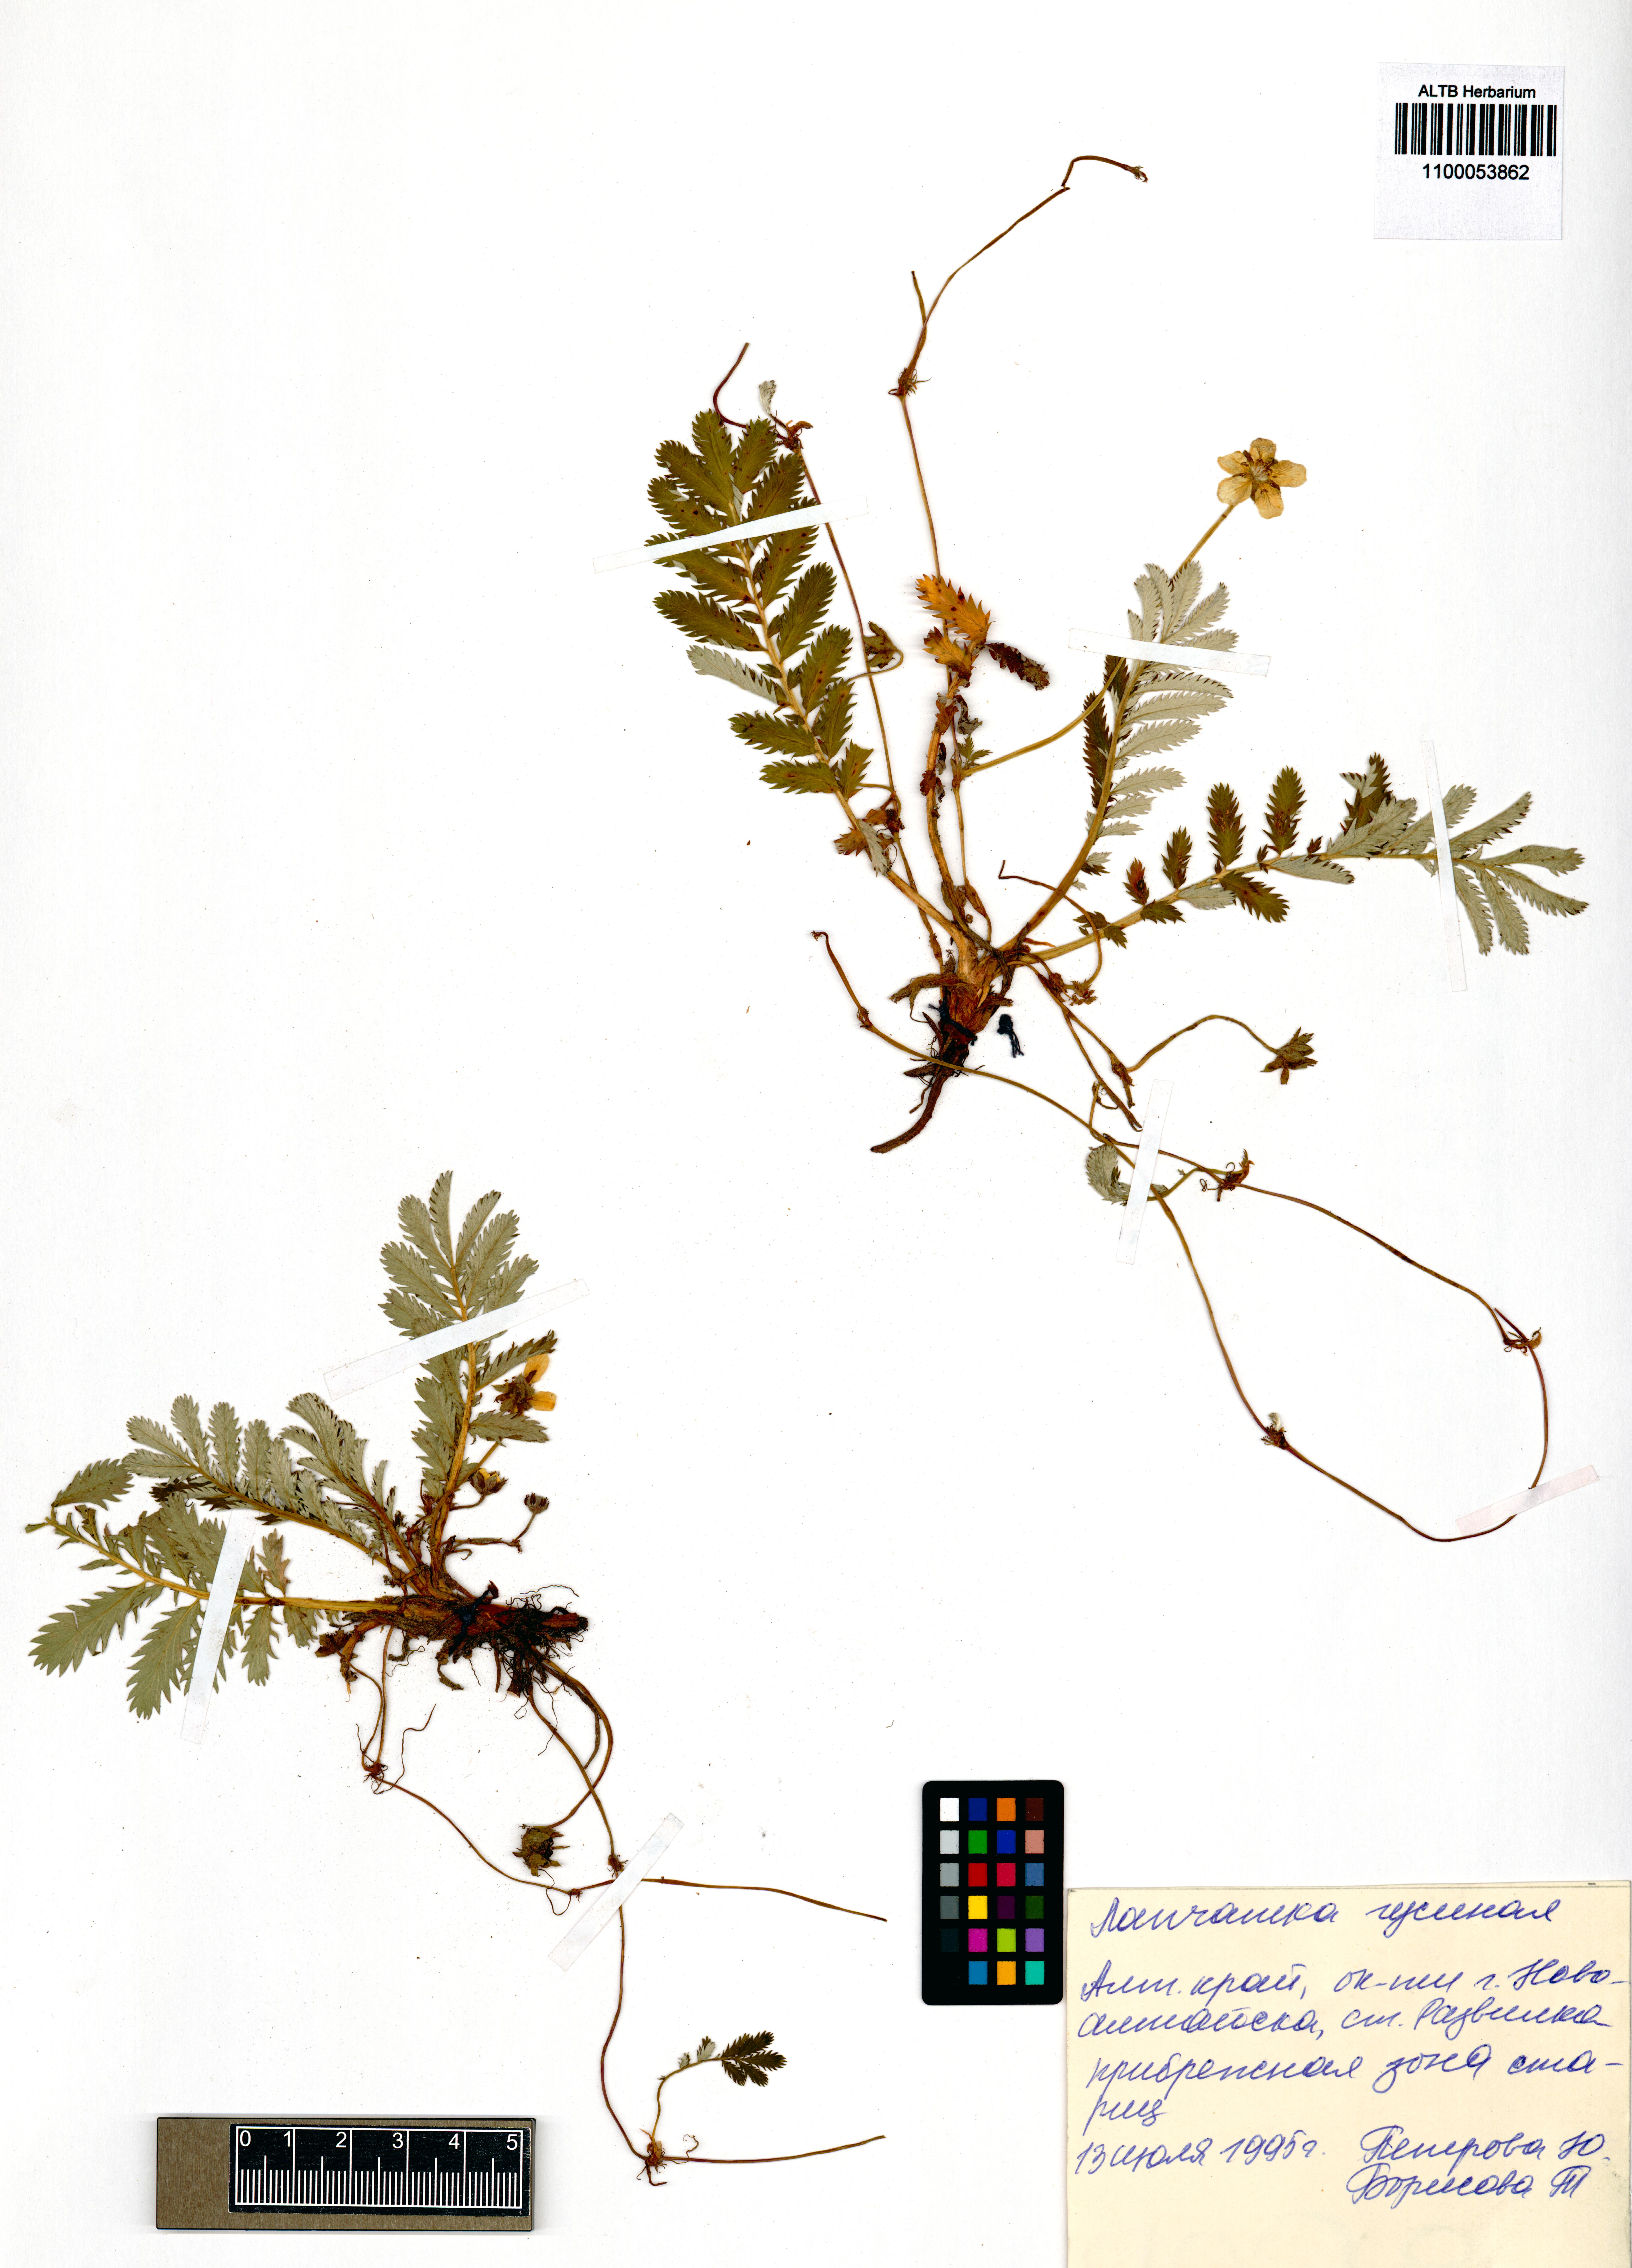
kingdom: Plantae
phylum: Tracheophyta
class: Magnoliopsida
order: Rosales
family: Rosaceae
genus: Argentina
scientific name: Argentina anserina
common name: Common silverweed
